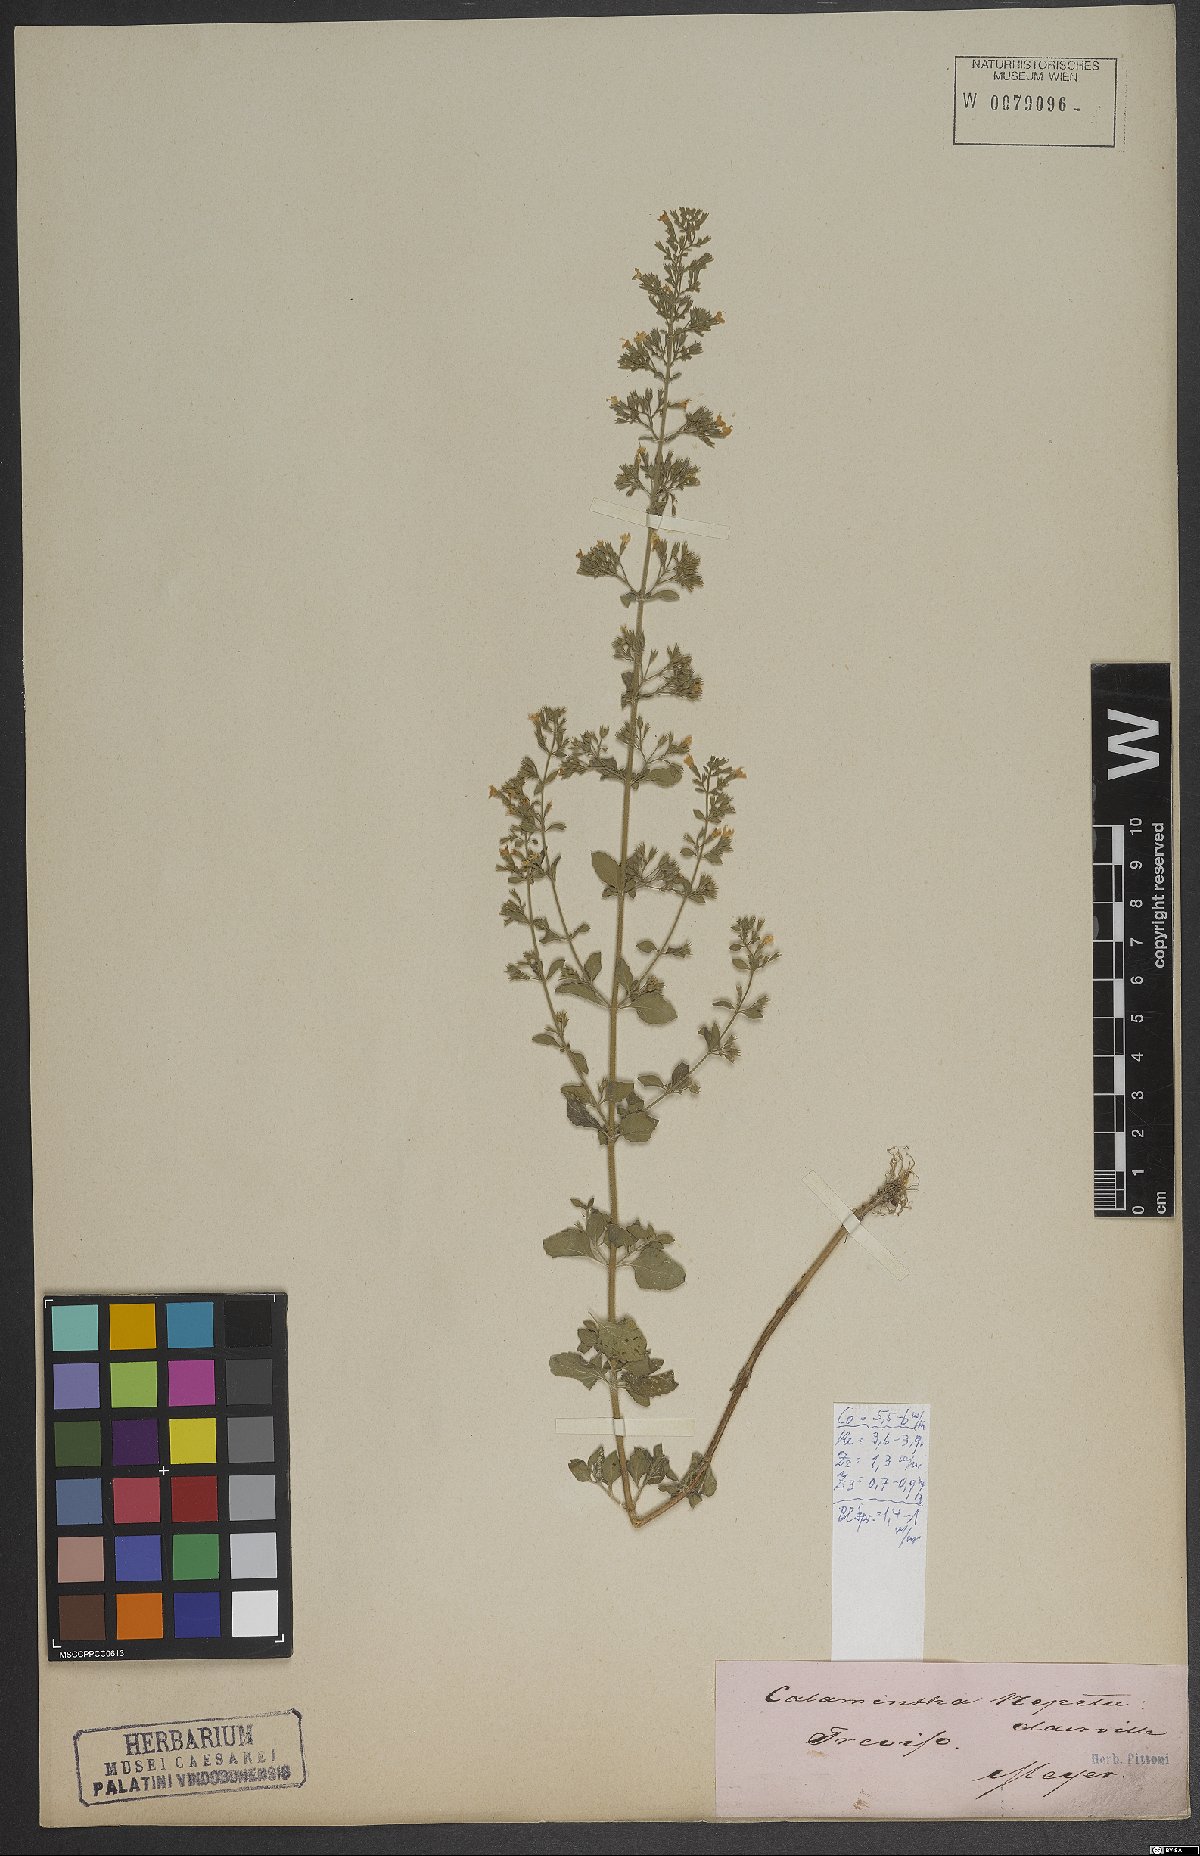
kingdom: Plantae
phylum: Tracheophyta
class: Magnoliopsida
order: Lamiales
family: Lamiaceae
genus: Clinopodium
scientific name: Clinopodium nepeta
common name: Lesser calamint
